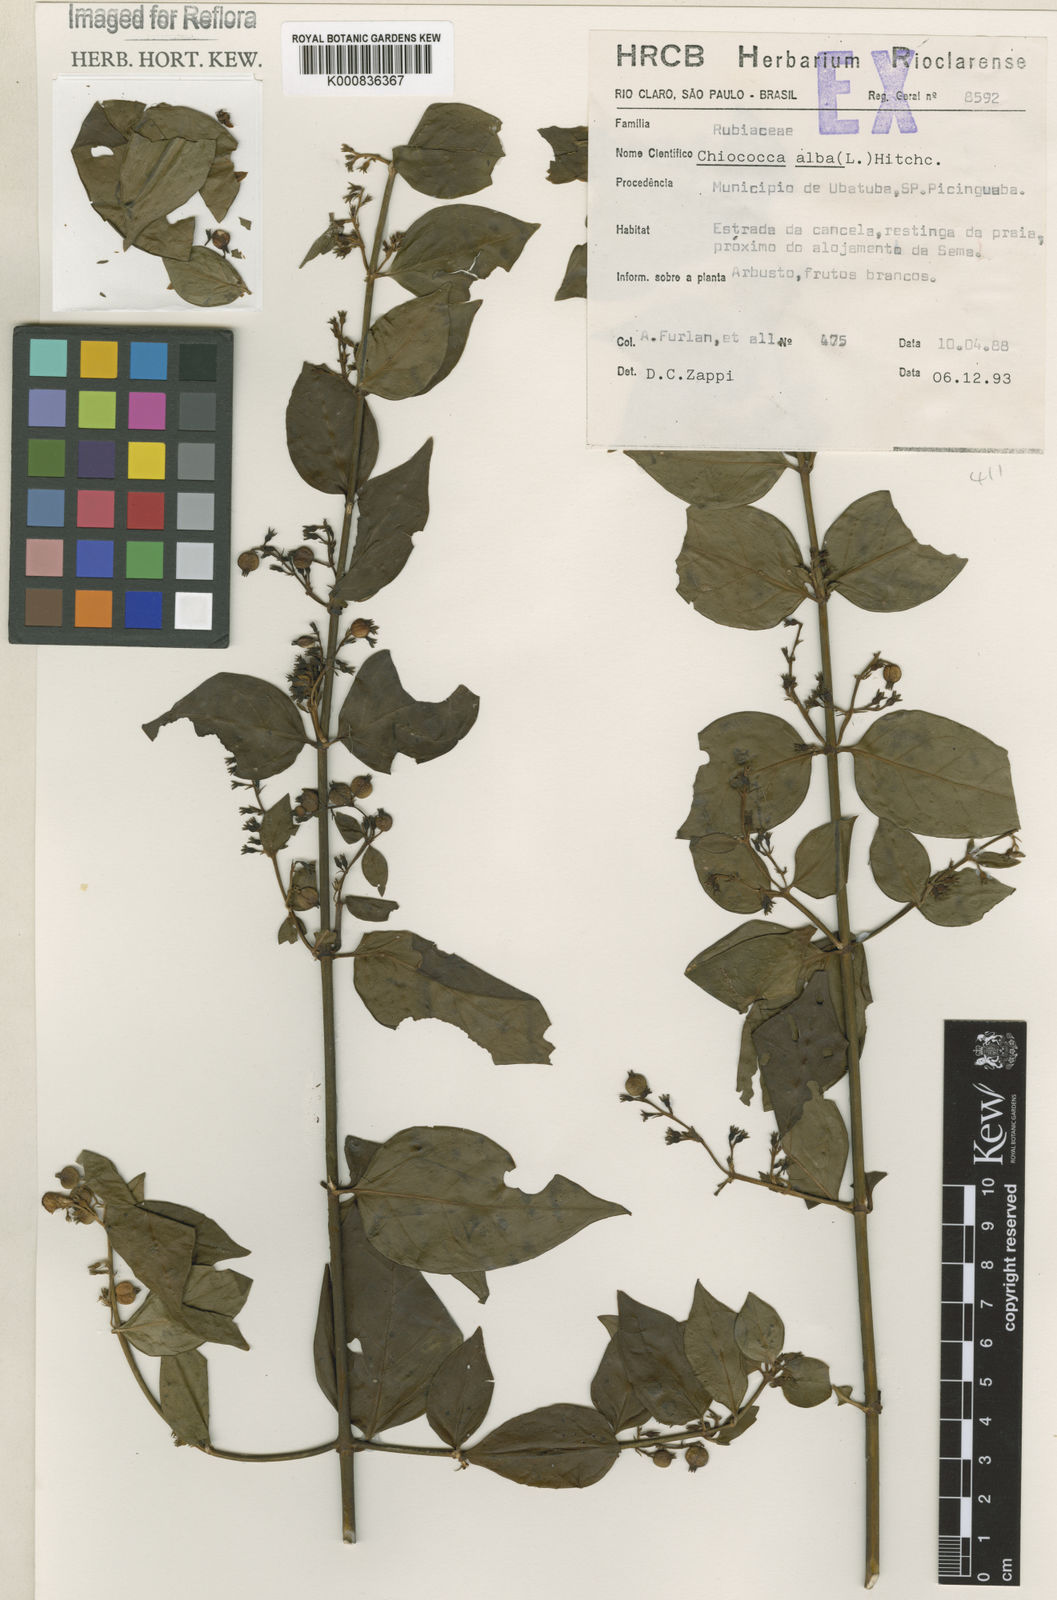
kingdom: Plantae
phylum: Tracheophyta
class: Magnoliopsida
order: Gentianales
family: Rubiaceae
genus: Chiococca
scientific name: Chiococca alba
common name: Snowberry
